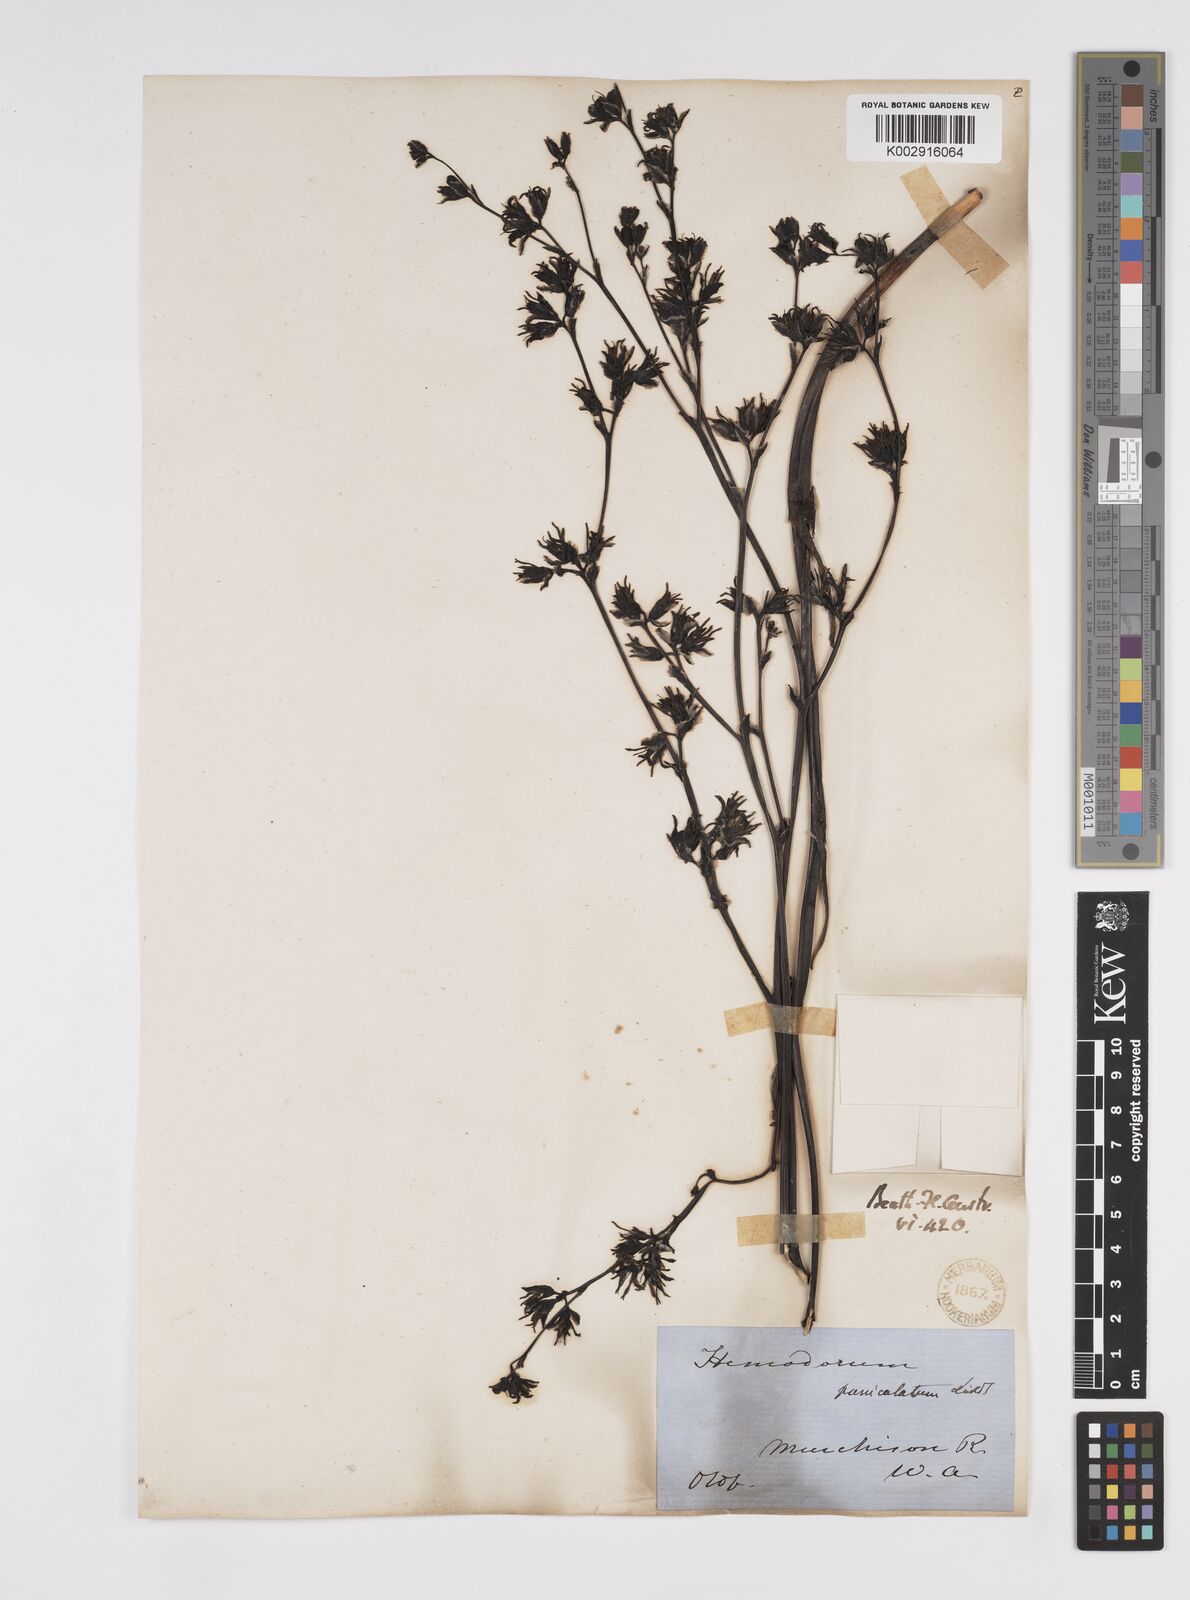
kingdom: Plantae
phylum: Tracheophyta
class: Liliopsida
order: Commelinales
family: Haemodoraceae
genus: Haemodorum
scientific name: Haemodorum paniculatum
